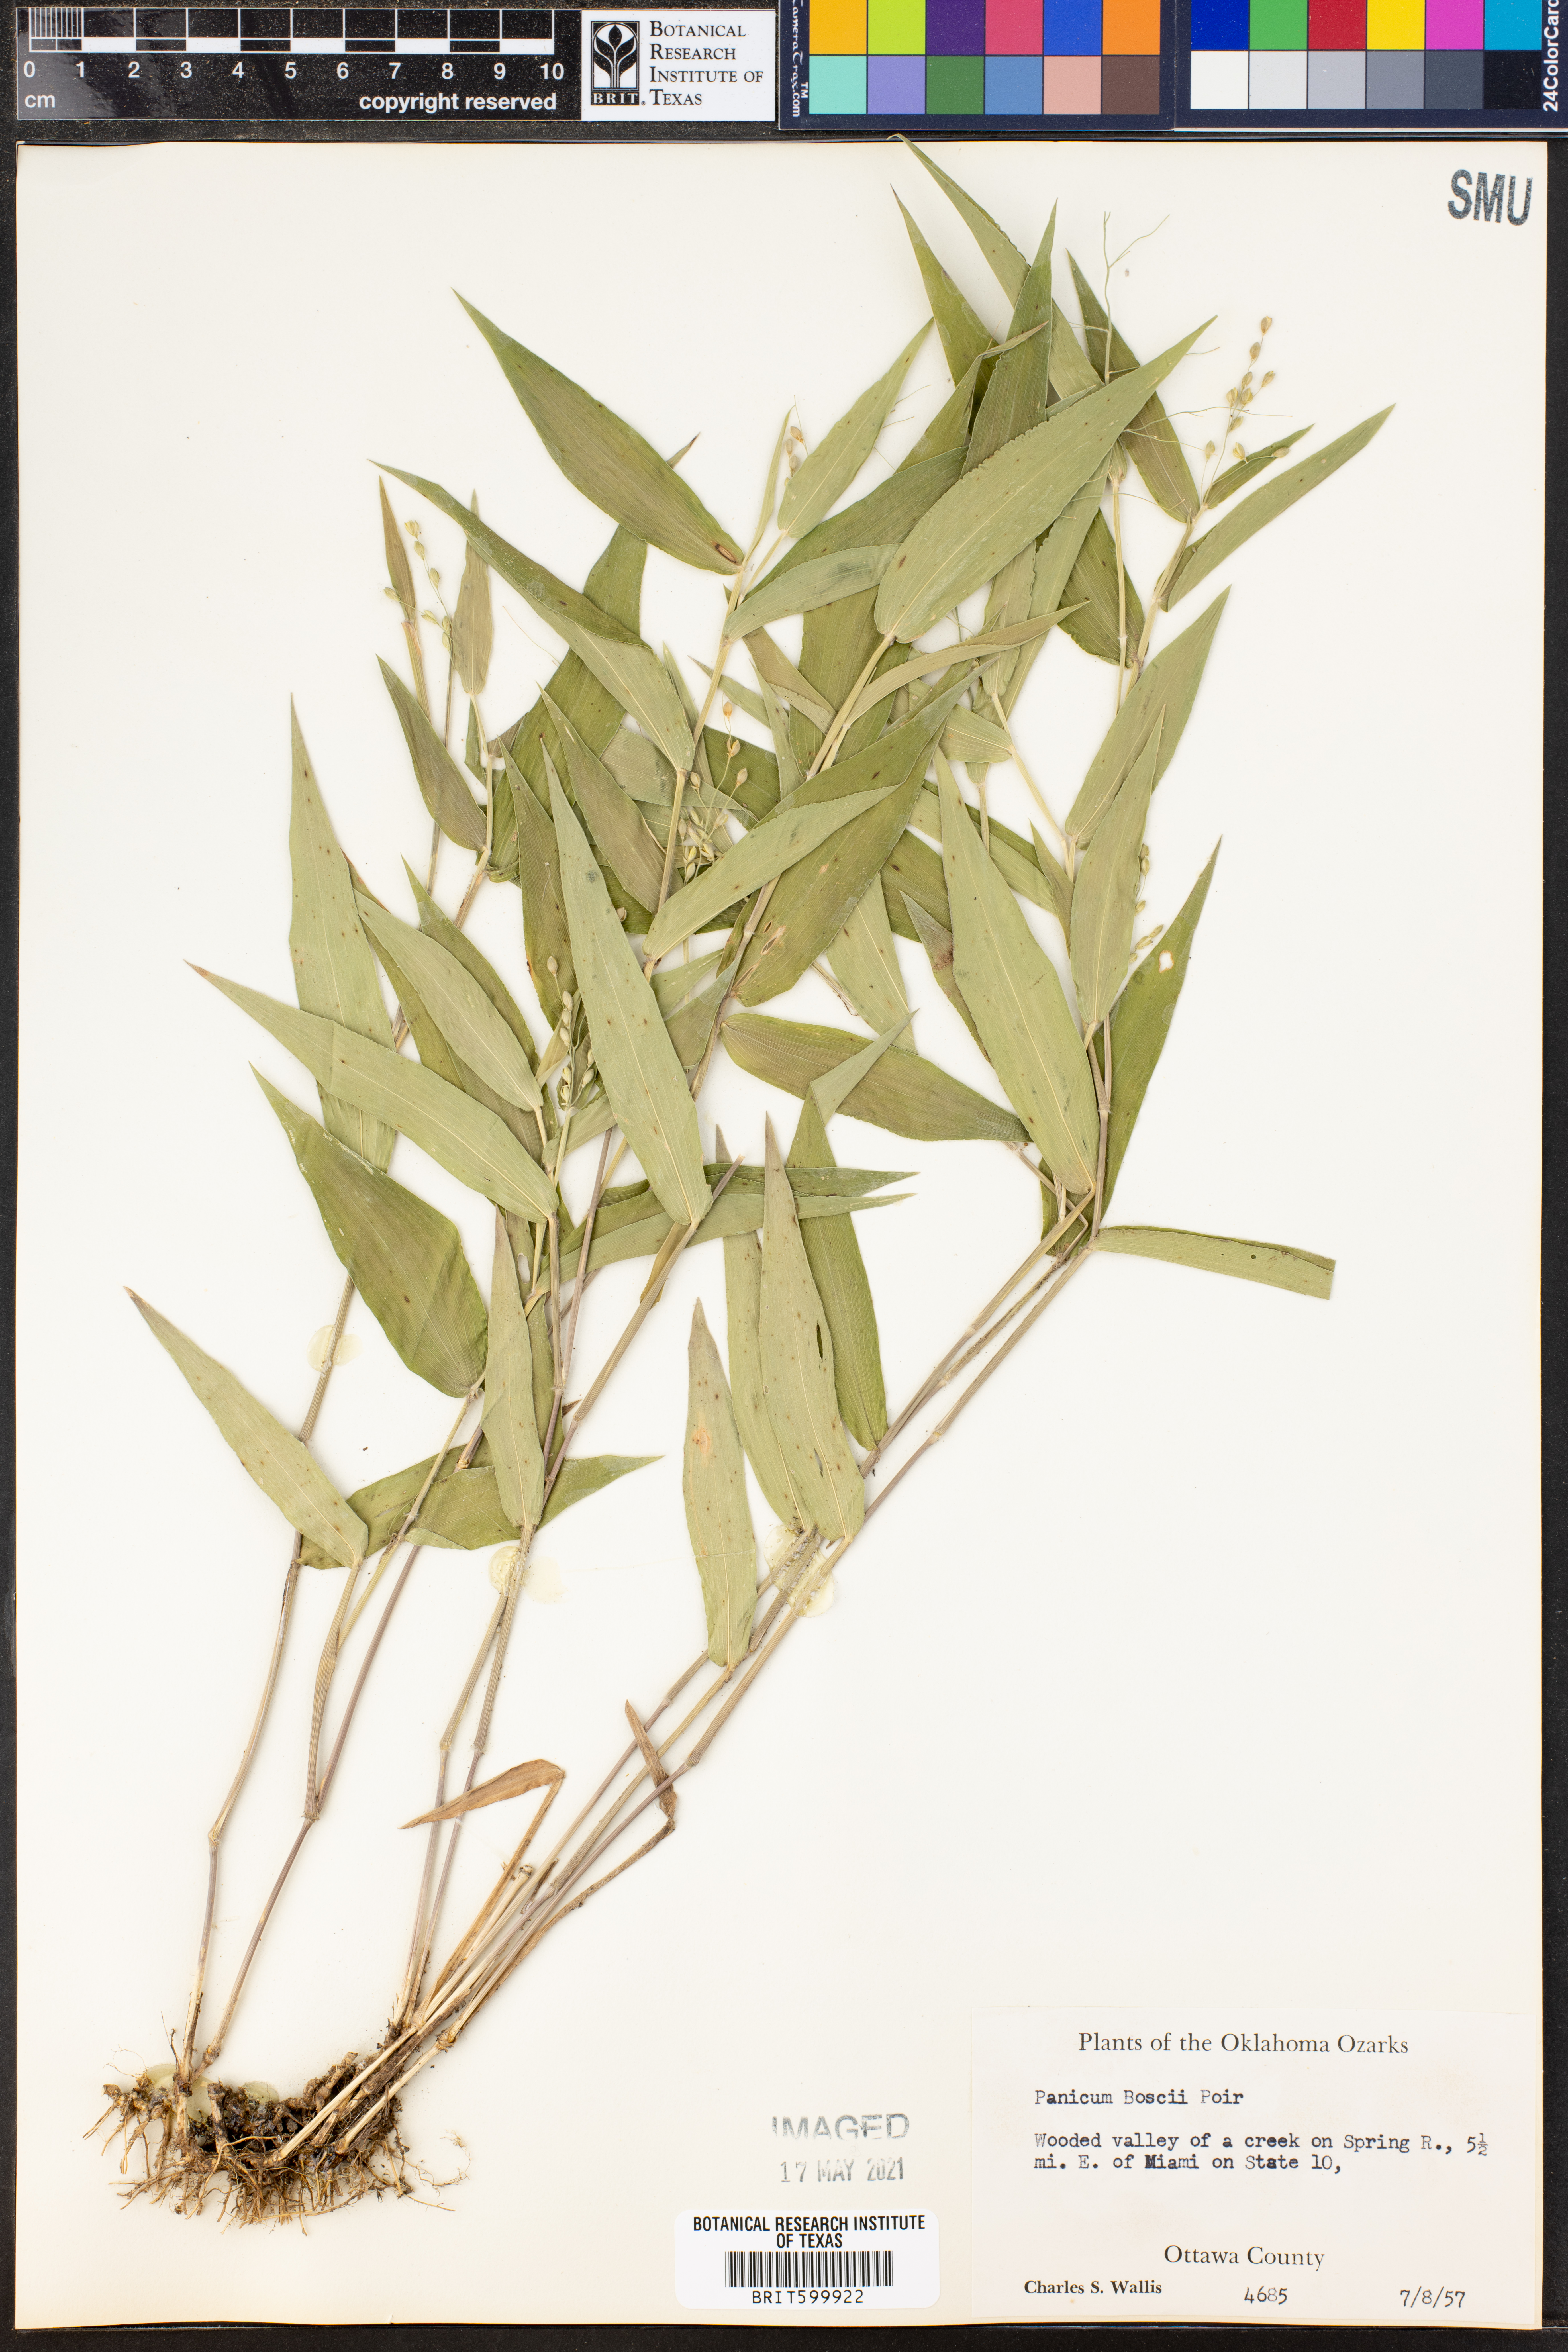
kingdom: Plantae
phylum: Tracheophyta
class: Liliopsida
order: Poales
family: Poaceae
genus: Dichanthelium
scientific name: Dichanthelium boscii
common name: Bosc's panic grass
